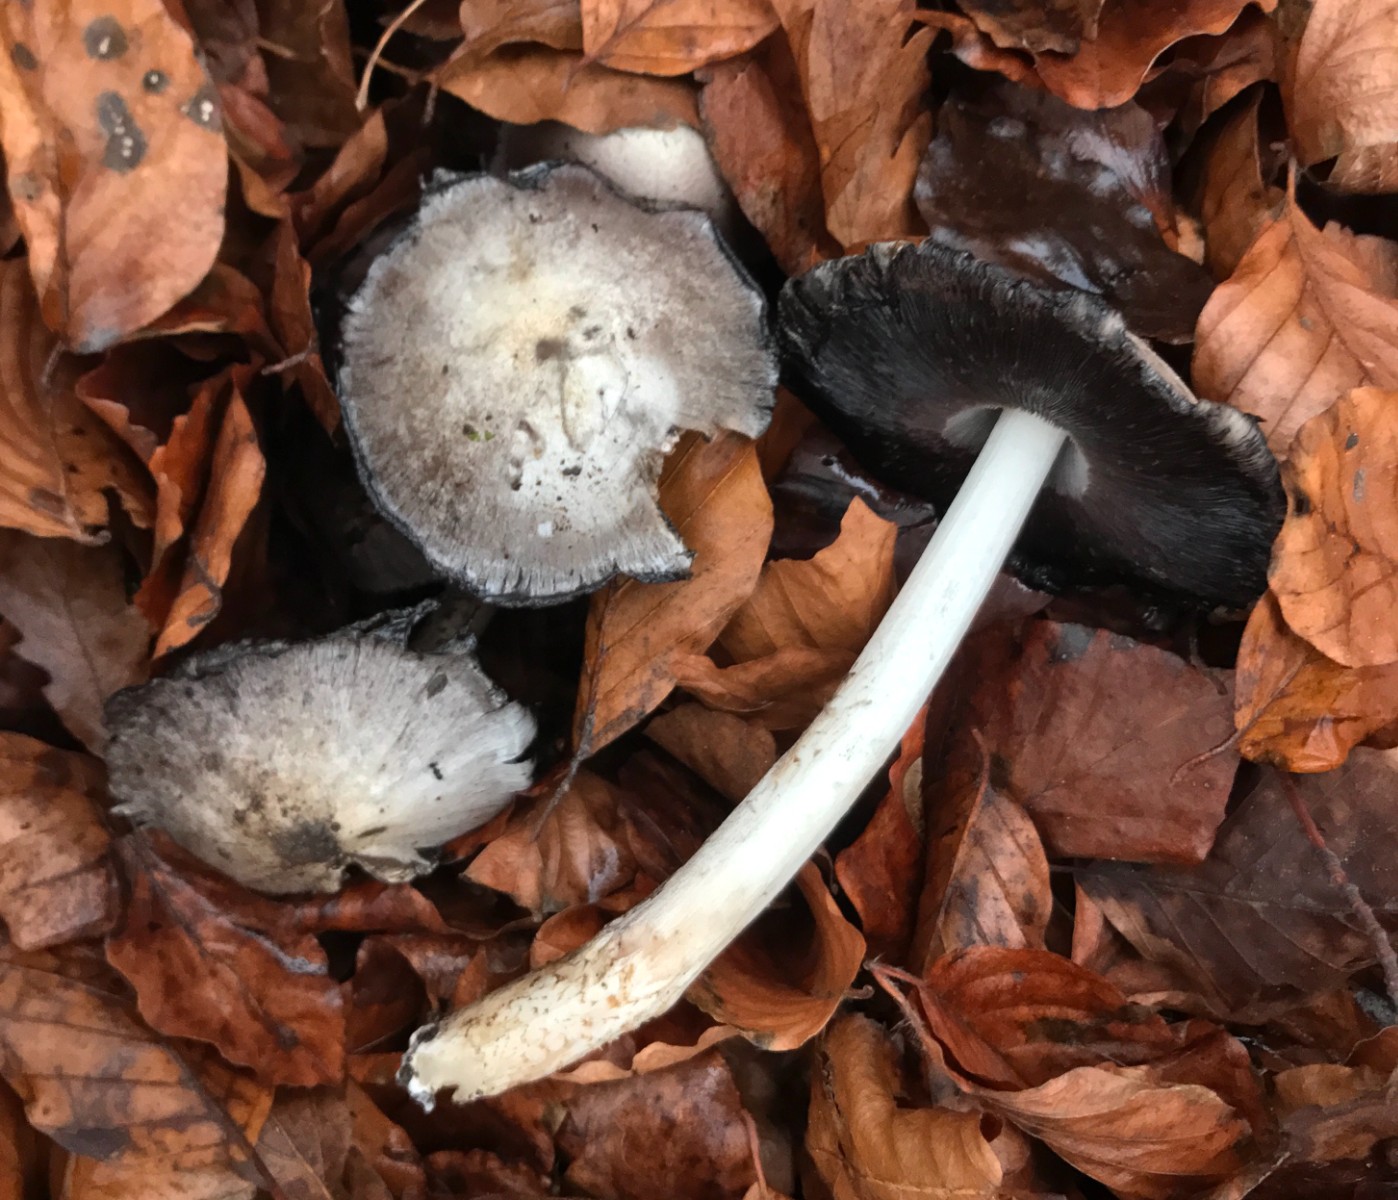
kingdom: Fungi
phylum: Basidiomycota
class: Agaricomycetes
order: Agaricales
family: Psathyrellaceae
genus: Coprinopsis
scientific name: Coprinopsis atramentaria
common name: almindelig blækhat
